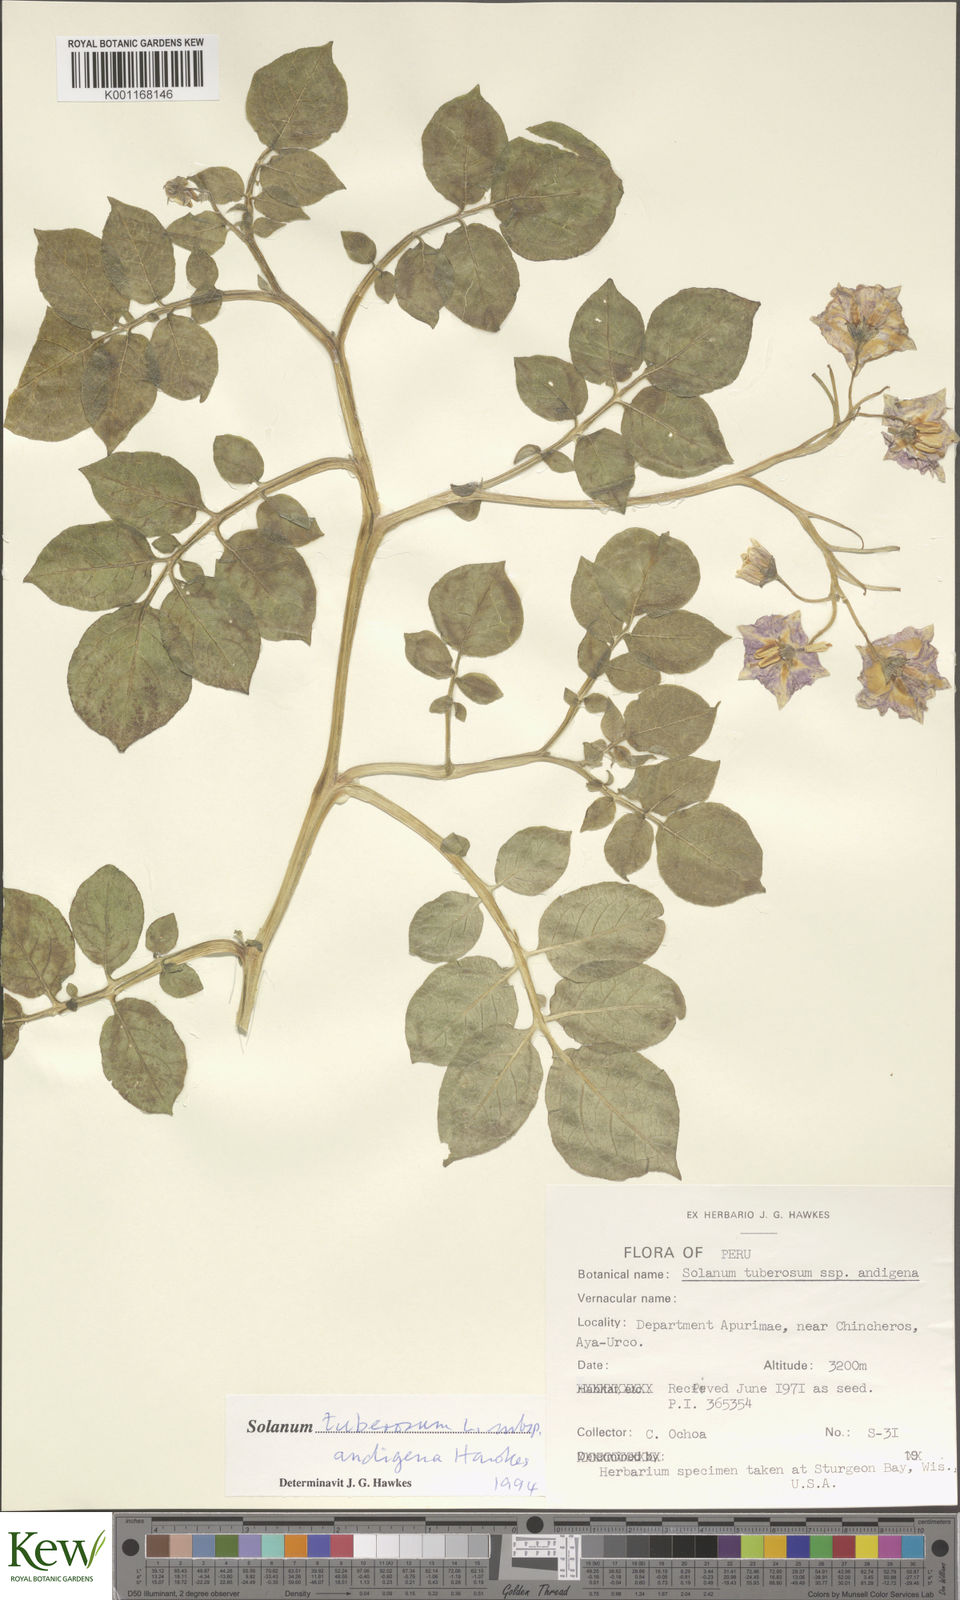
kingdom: Plantae
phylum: Tracheophyta
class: Magnoliopsida
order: Solanales
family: Solanaceae
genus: Solanum
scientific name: Solanum tuberosum
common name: Potato
